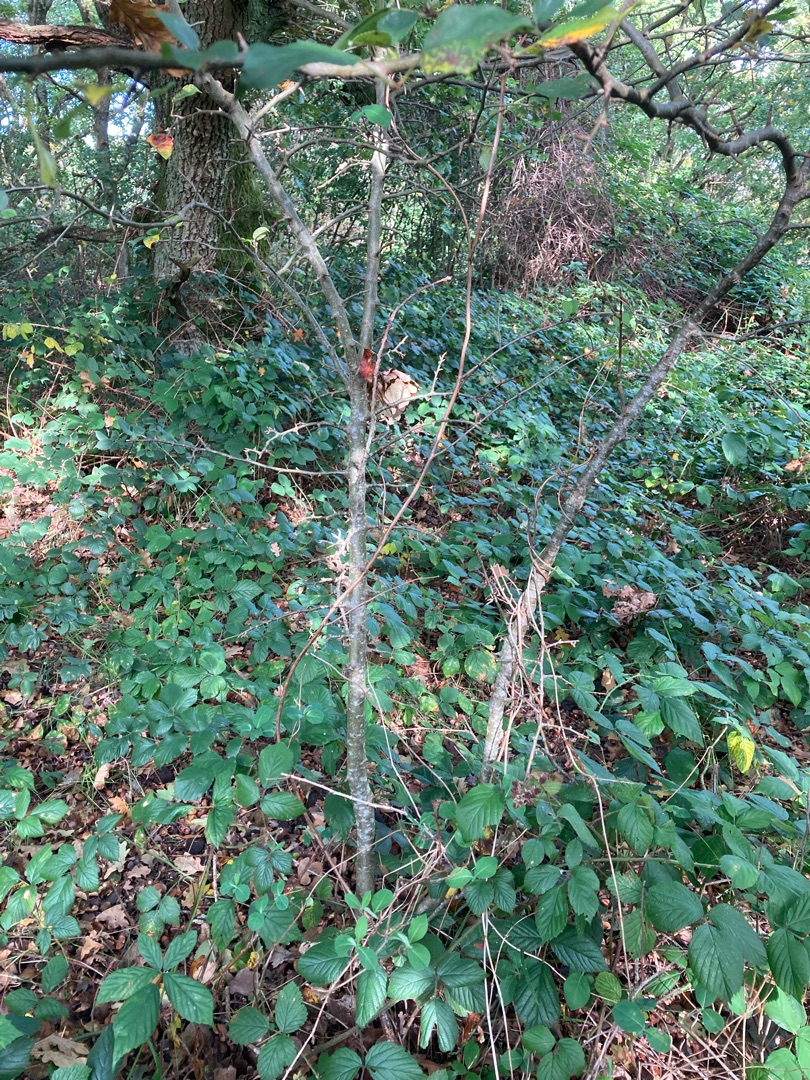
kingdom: Plantae
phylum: Tracheophyta
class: Magnoliopsida
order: Rosales
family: Rosaceae
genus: Malus
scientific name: Malus
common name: Æbleslægten
